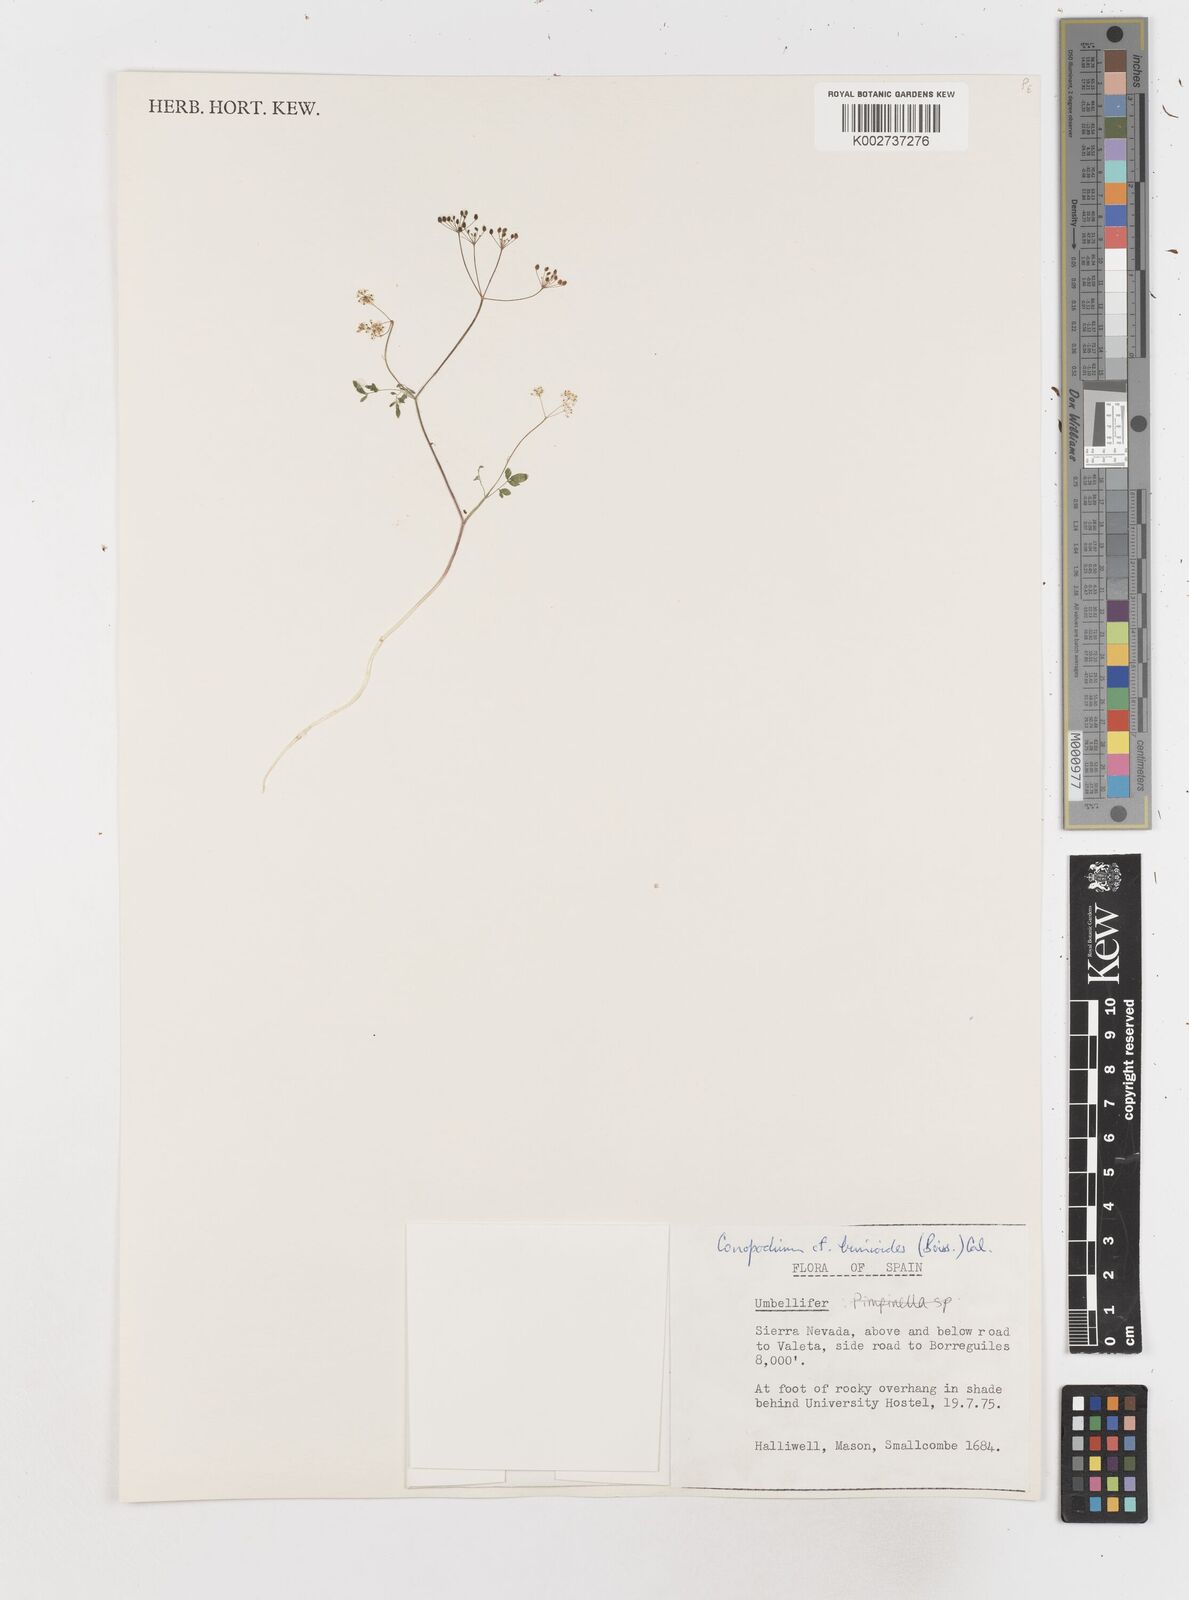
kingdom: Plantae
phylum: Tracheophyta
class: Magnoliopsida
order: Apiales
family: Apiaceae
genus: Conopodium
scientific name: Conopodium bunioides
